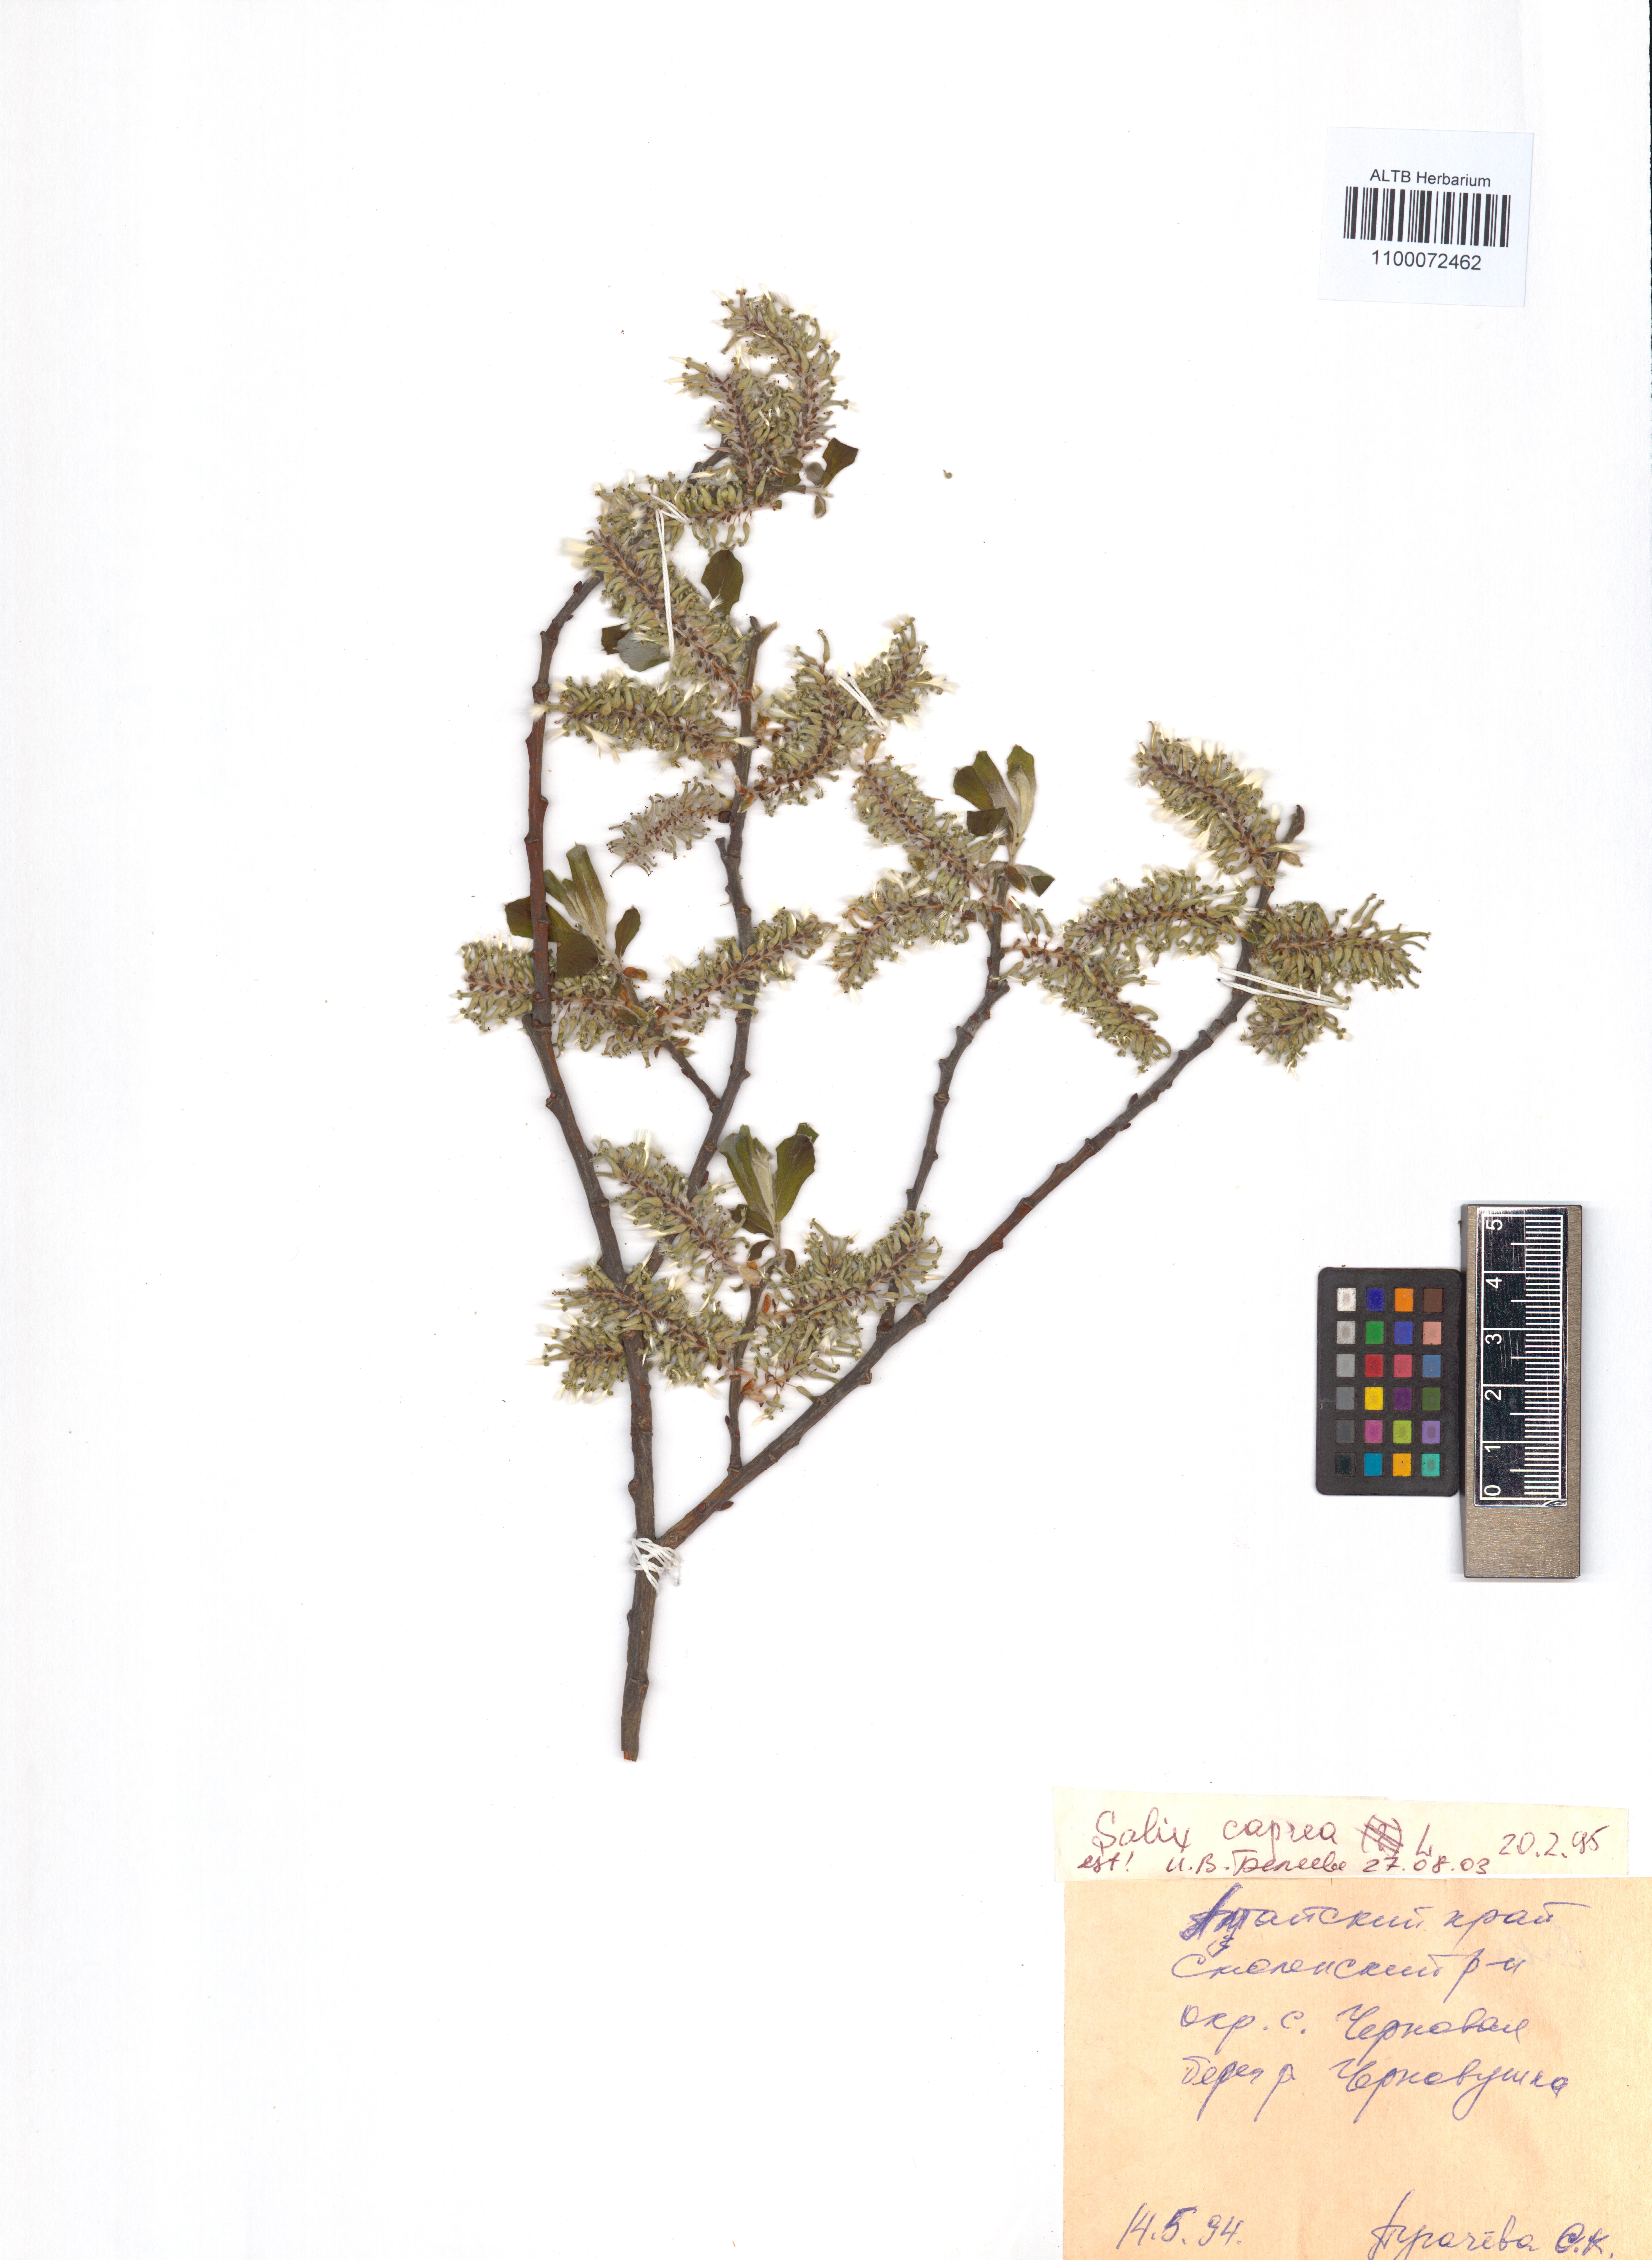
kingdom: Plantae
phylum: Tracheophyta
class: Magnoliopsida
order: Malpighiales
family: Salicaceae
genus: Salix
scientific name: Salix caprea
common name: Goat willow
